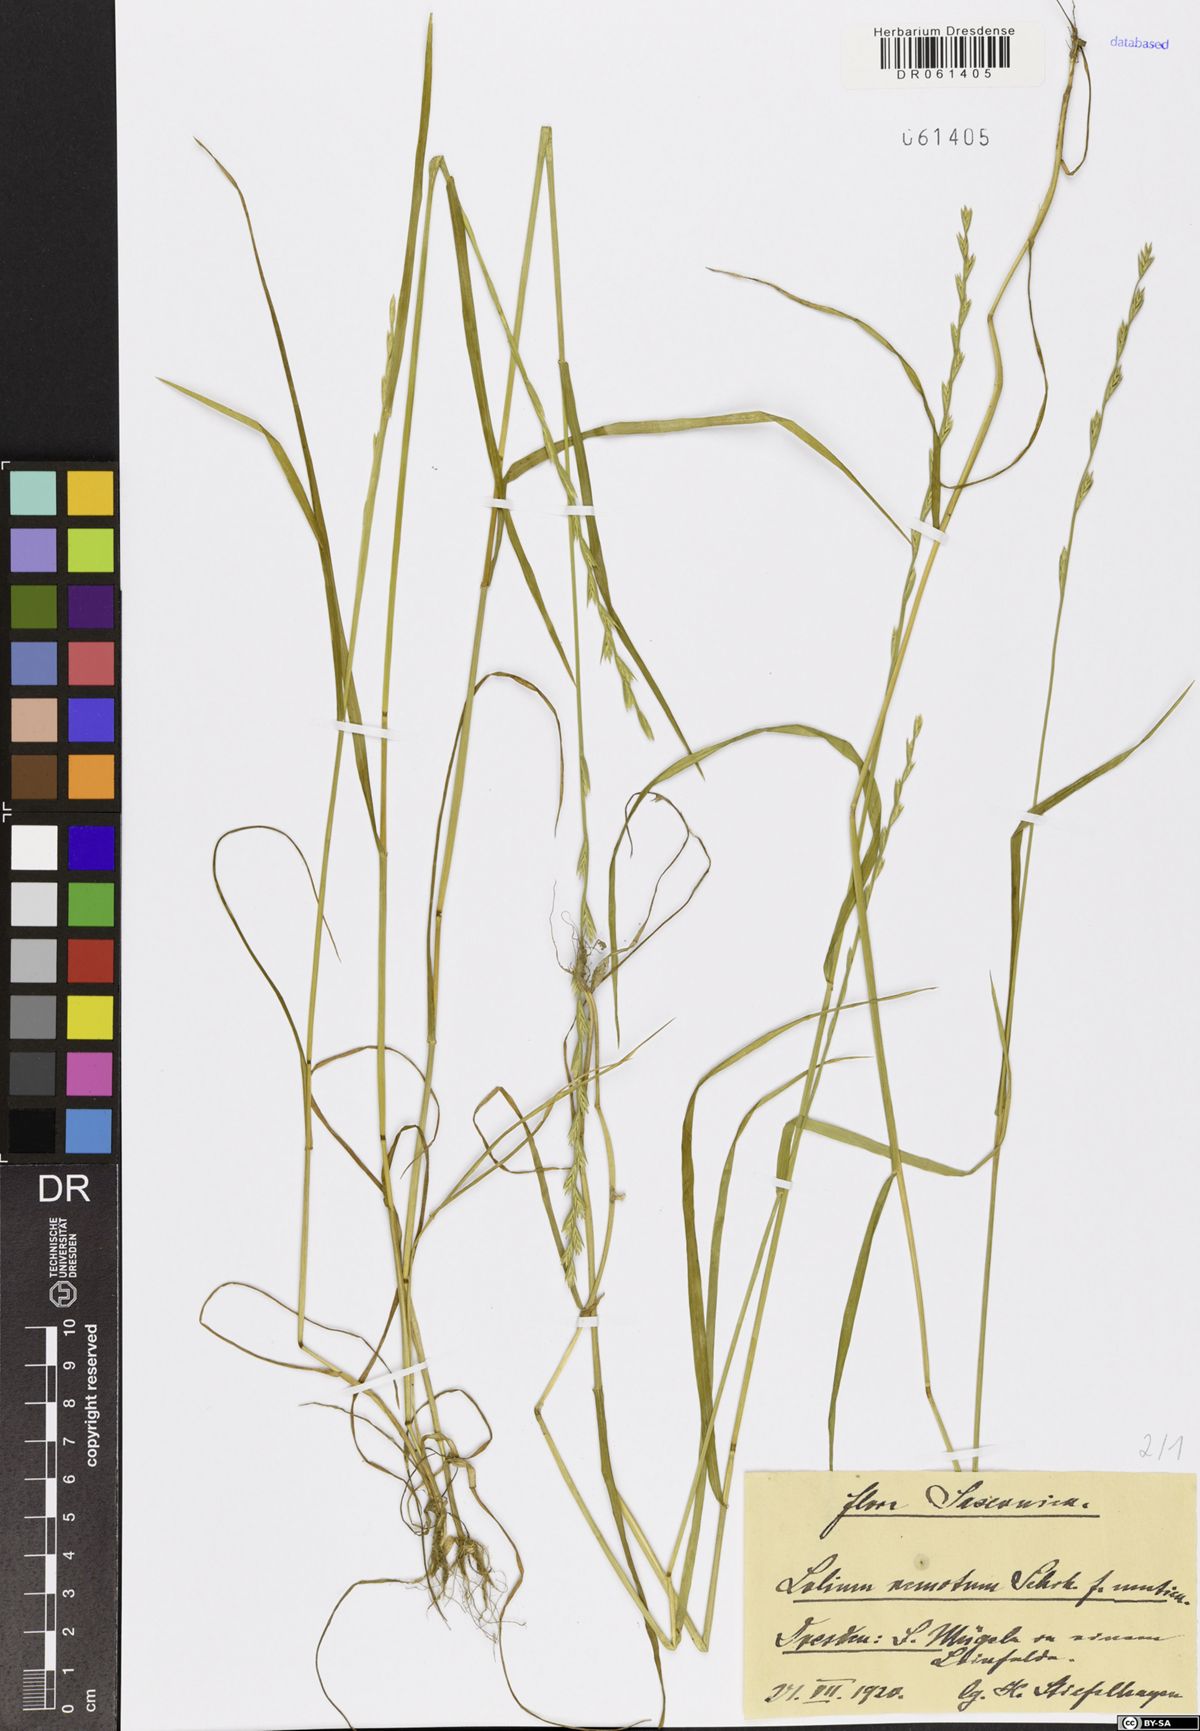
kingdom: Plantae
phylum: Tracheophyta
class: Liliopsida
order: Poales
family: Poaceae
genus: Lolium
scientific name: Lolium remotum
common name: Flaxfield rye-grass
